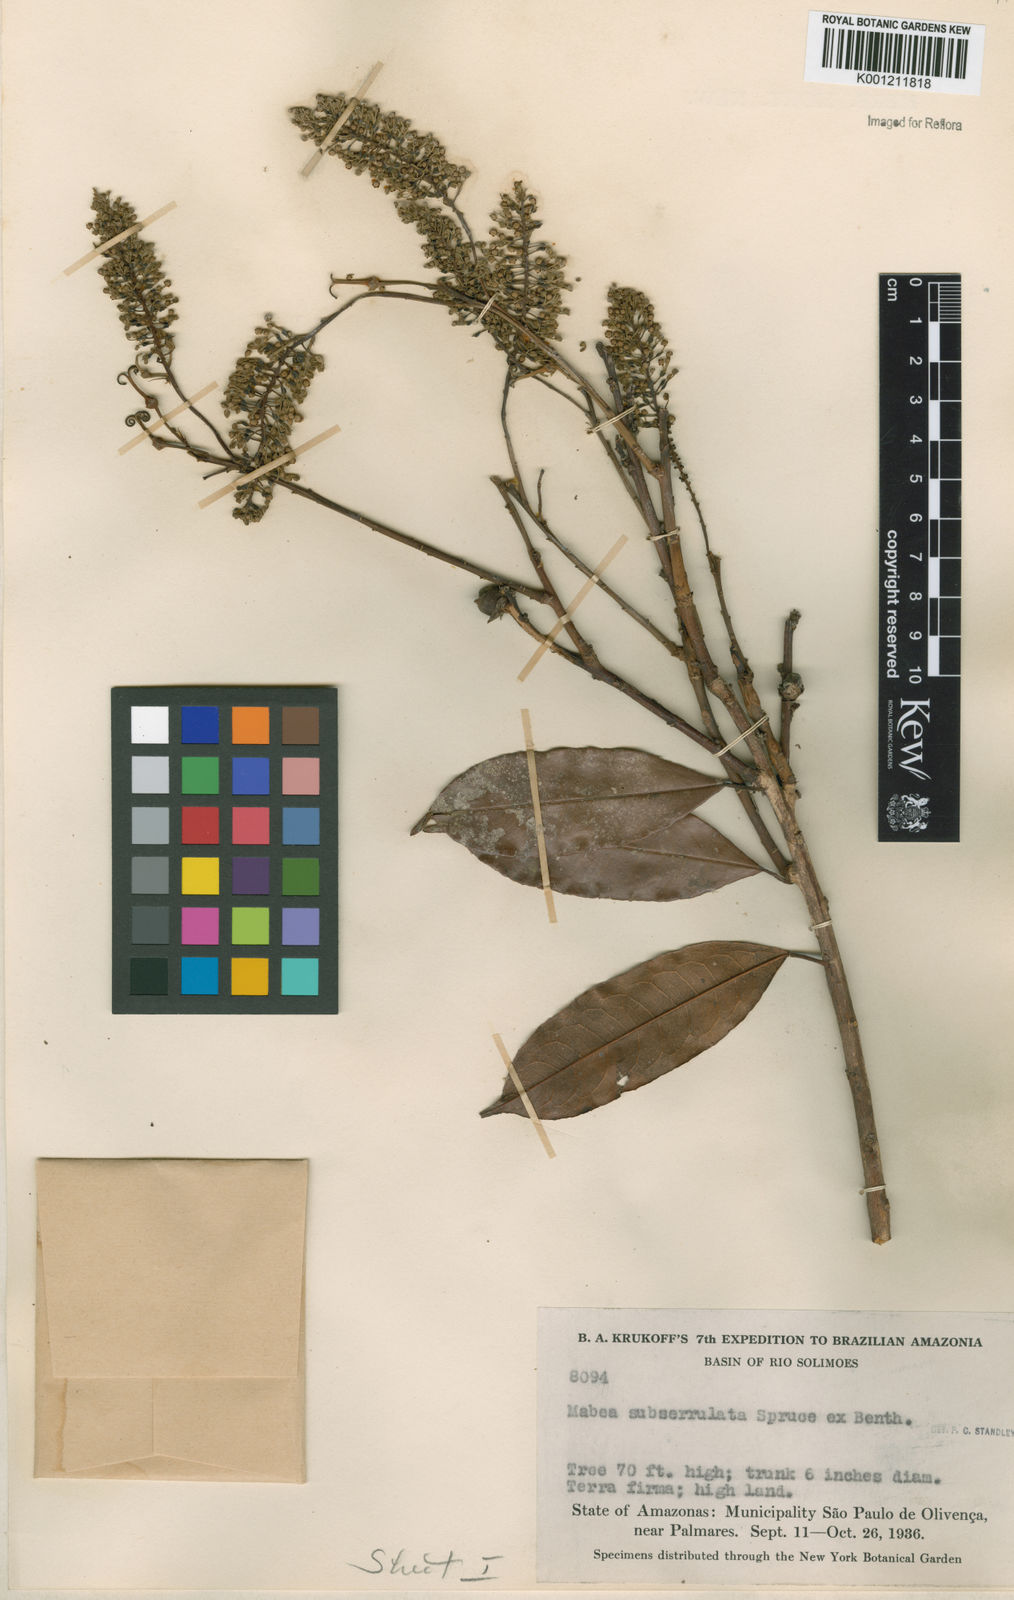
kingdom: Plantae
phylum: Tracheophyta
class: Magnoliopsida
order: Malpighiales
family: Euphorbiaceae
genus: Mabea
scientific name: Mabea subserrulata
